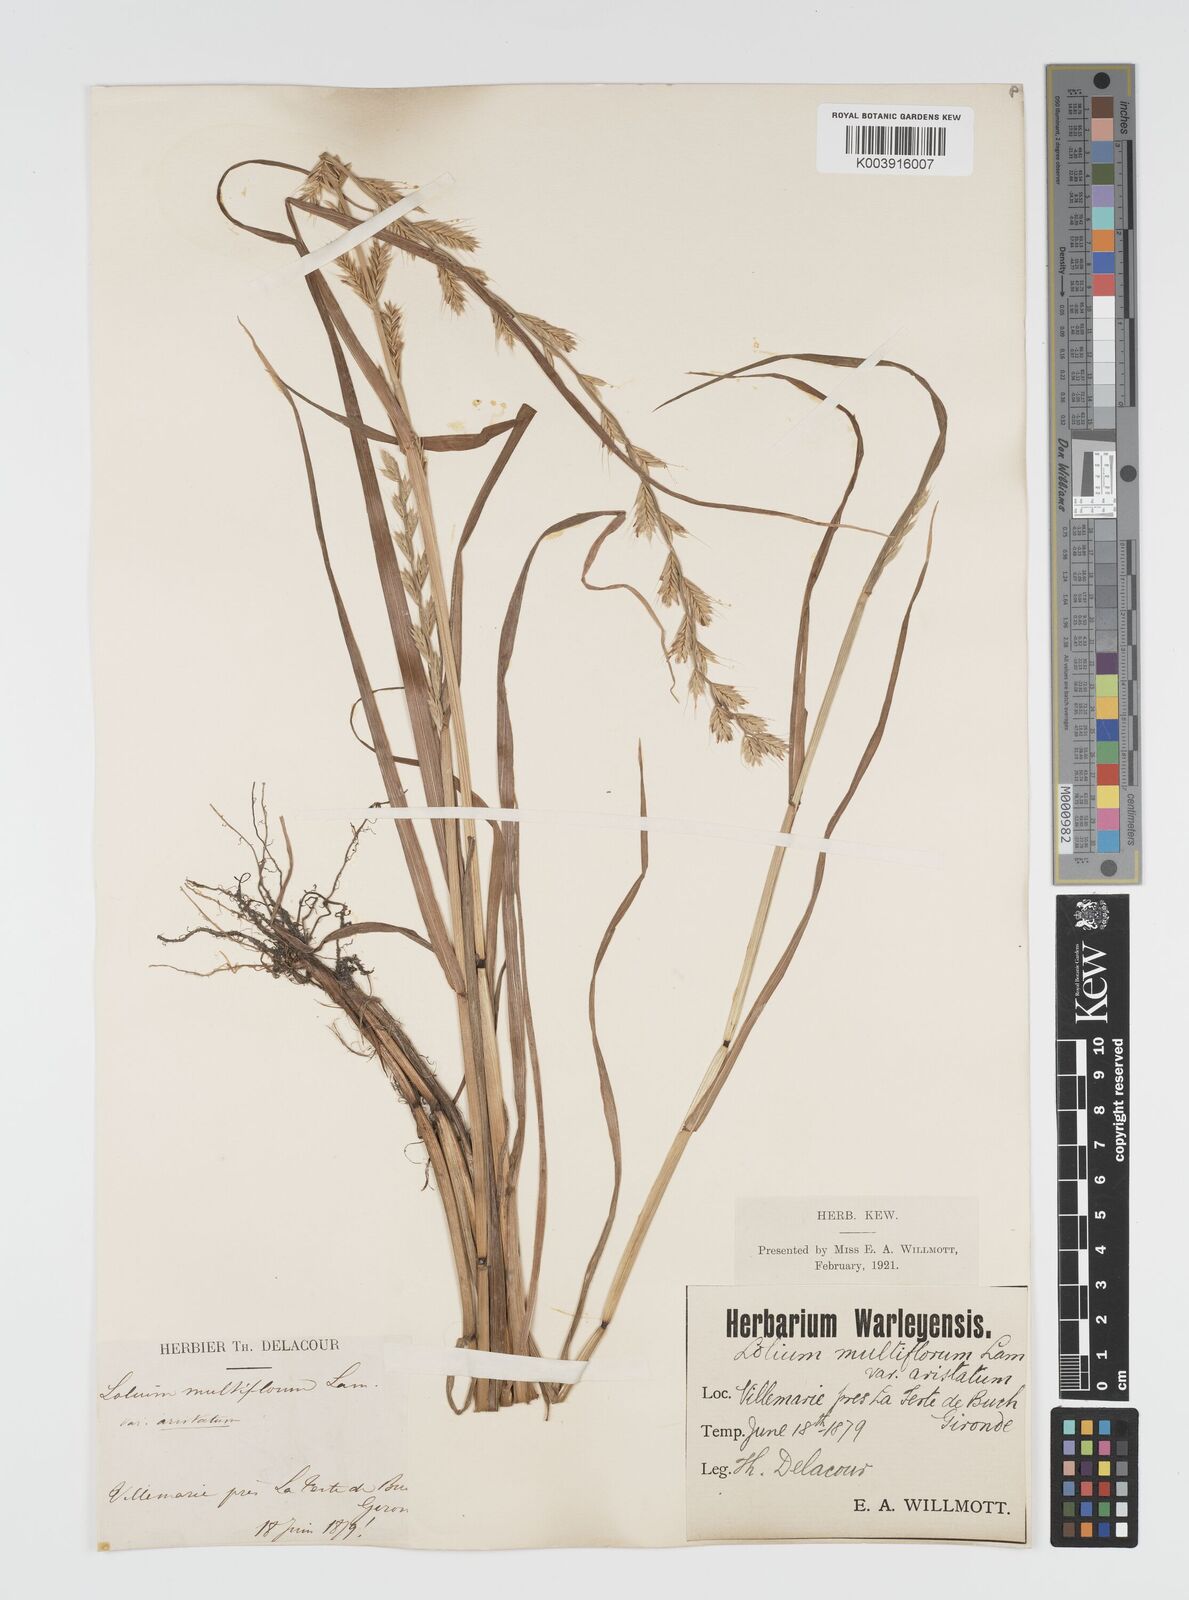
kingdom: Plantae
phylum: Tracheophyta
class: Liliopsida
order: Poales
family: Poaceae
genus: Lolium
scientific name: Lolium multiflorum
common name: Annual ryegrass
